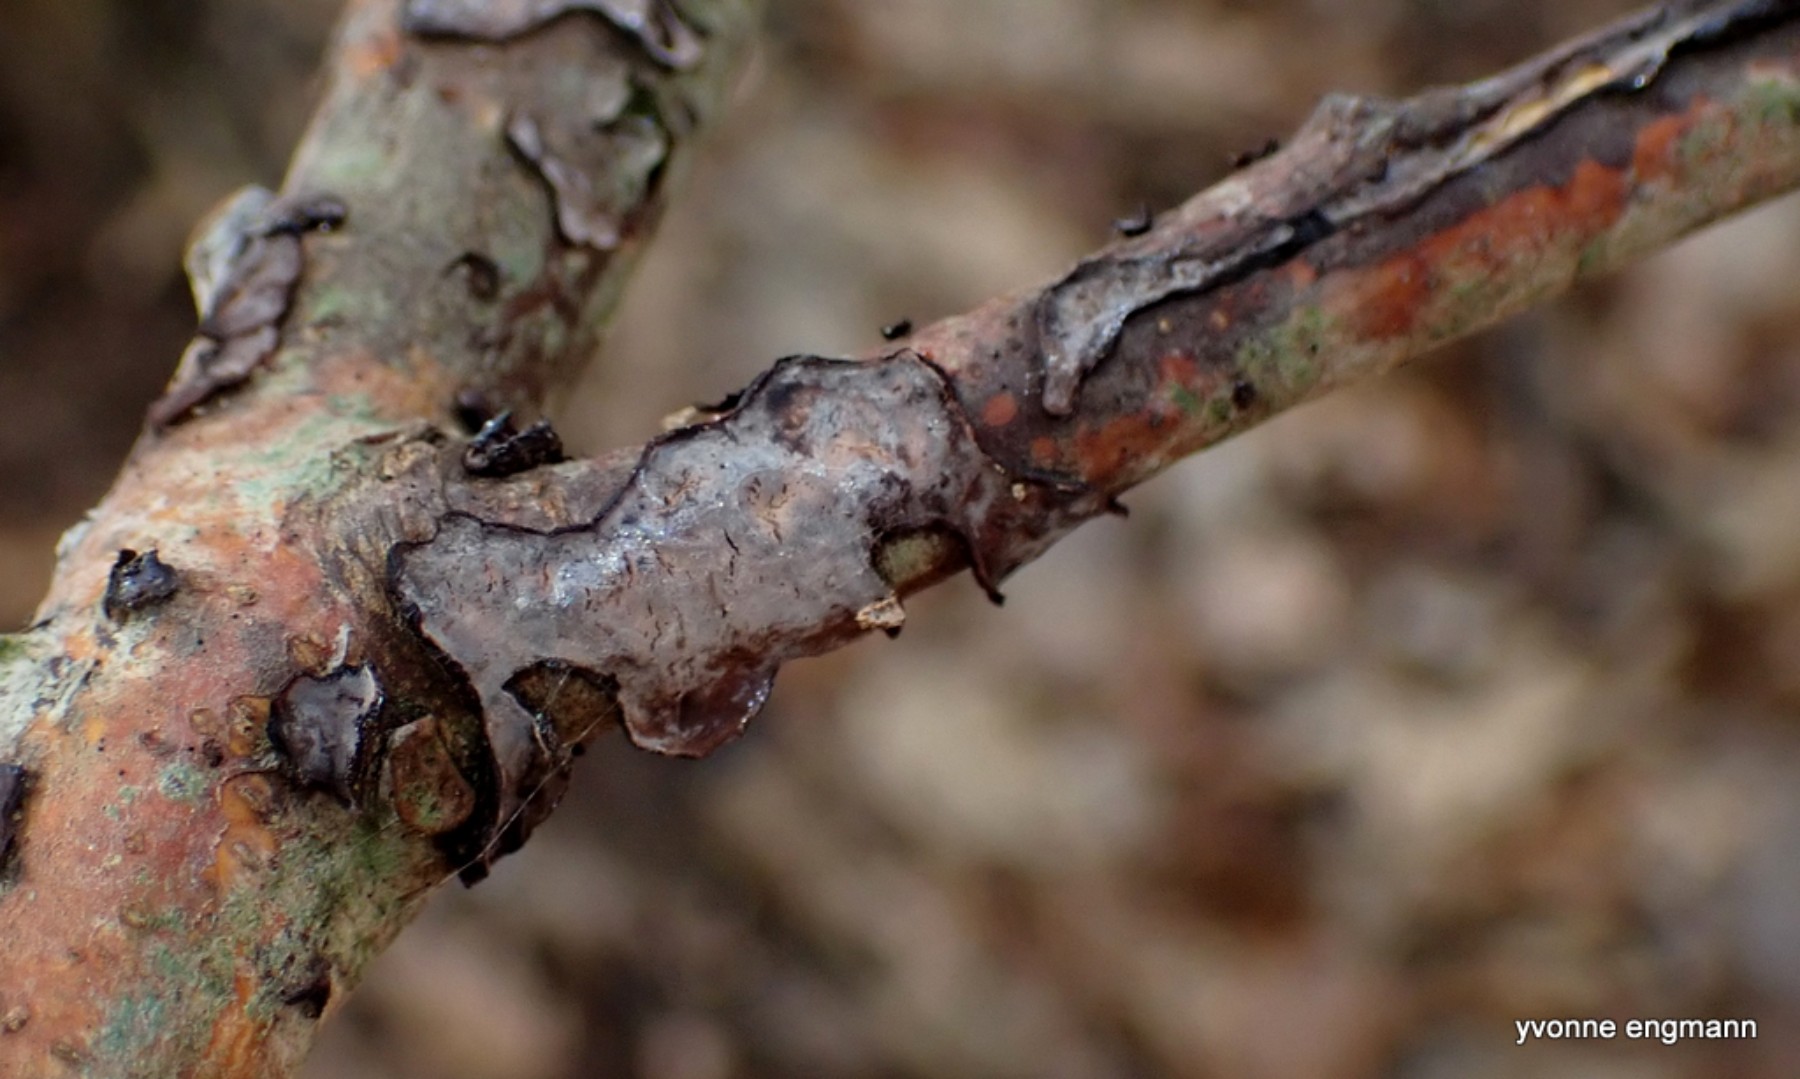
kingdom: Fungi
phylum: Basidiomycota
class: Agaricomycetes
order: Russulales
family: Peniophoraceae
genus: Peniophora
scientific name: Peniophora quercina
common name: ege-voksskind
